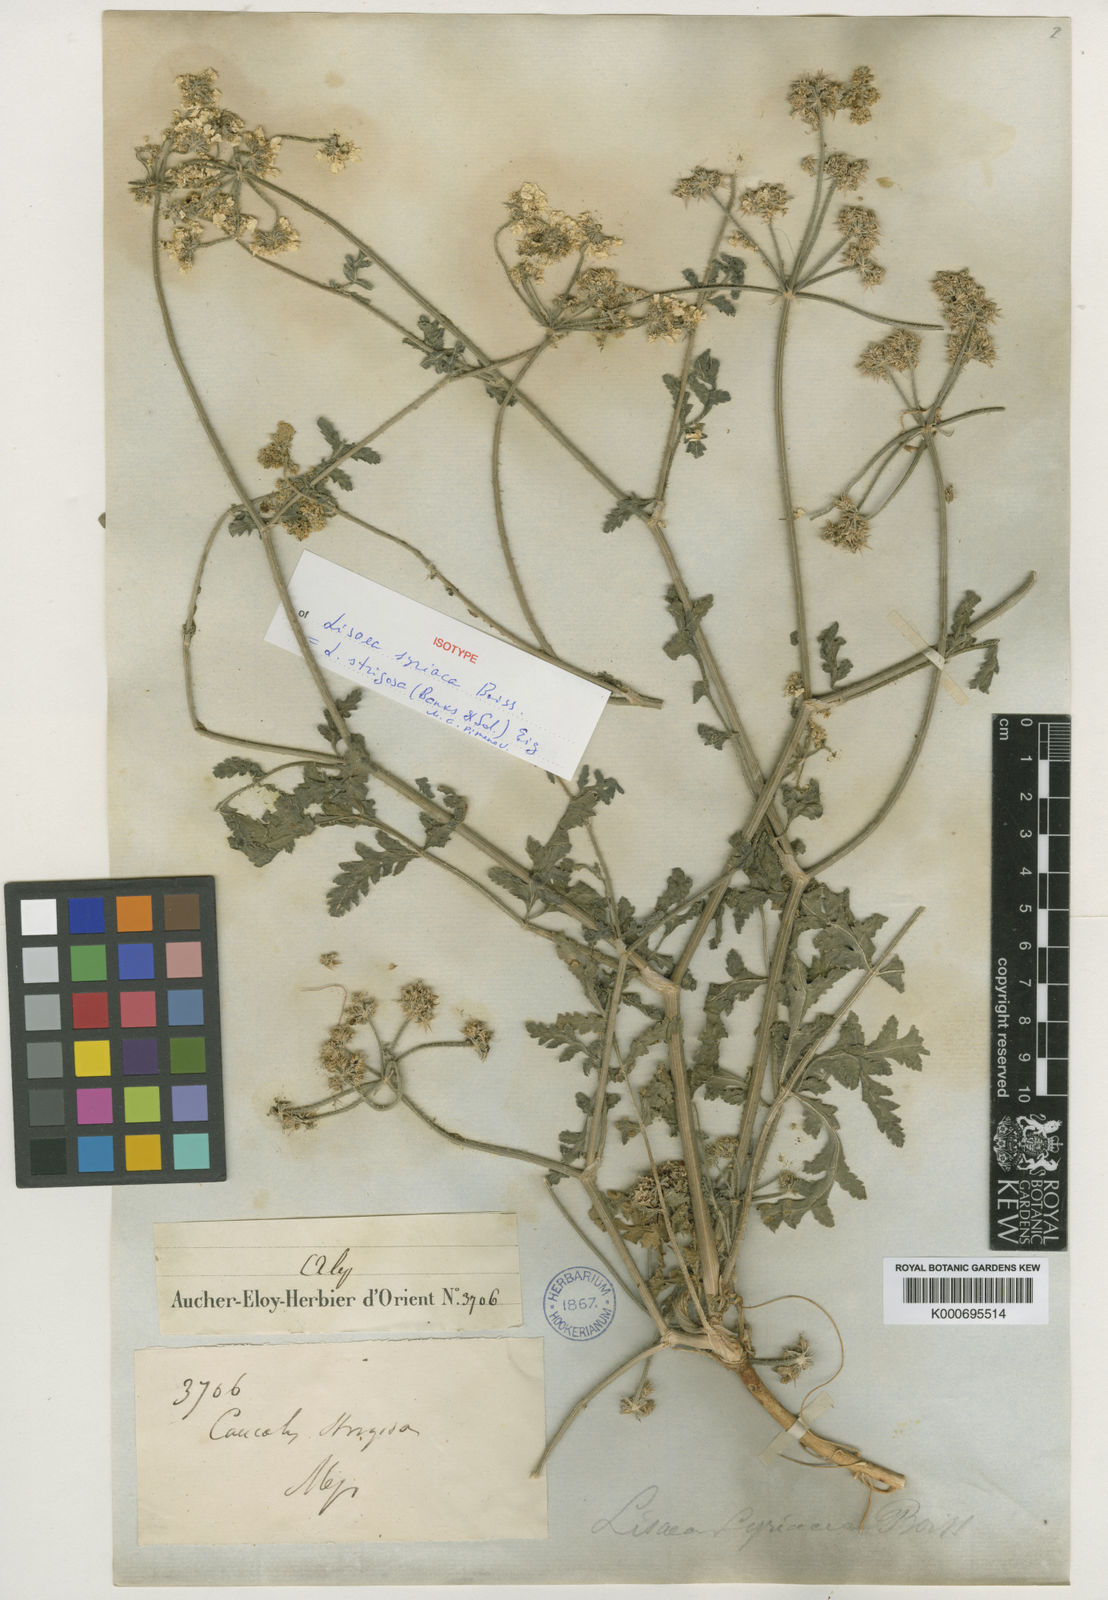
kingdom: Plantae
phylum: Tracheophyta
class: Magnoliopsida
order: Apiales
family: Apiaceae
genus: Lisaea
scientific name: Lisaea
